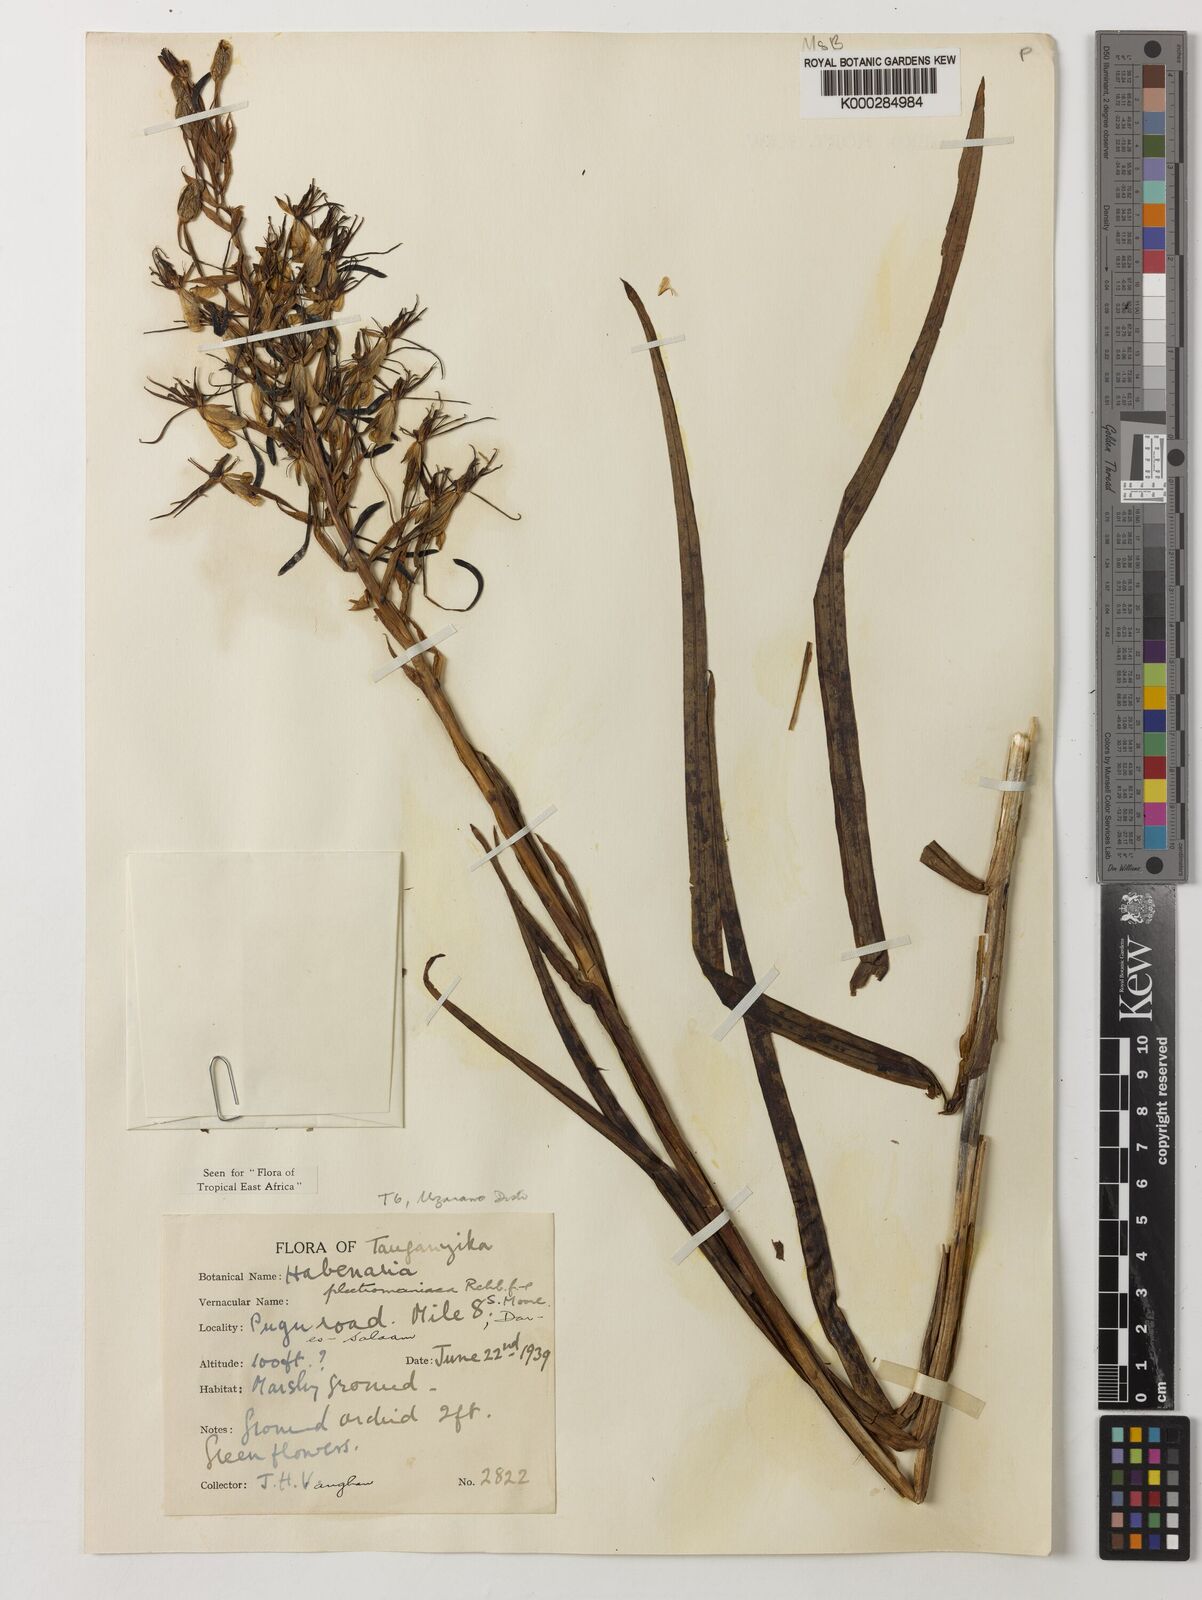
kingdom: Plantae
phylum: Tracheophyta
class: Liliopsida
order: Asparagales
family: Orchidaceae
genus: Habenaria
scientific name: Habenaria plectromaniaca
